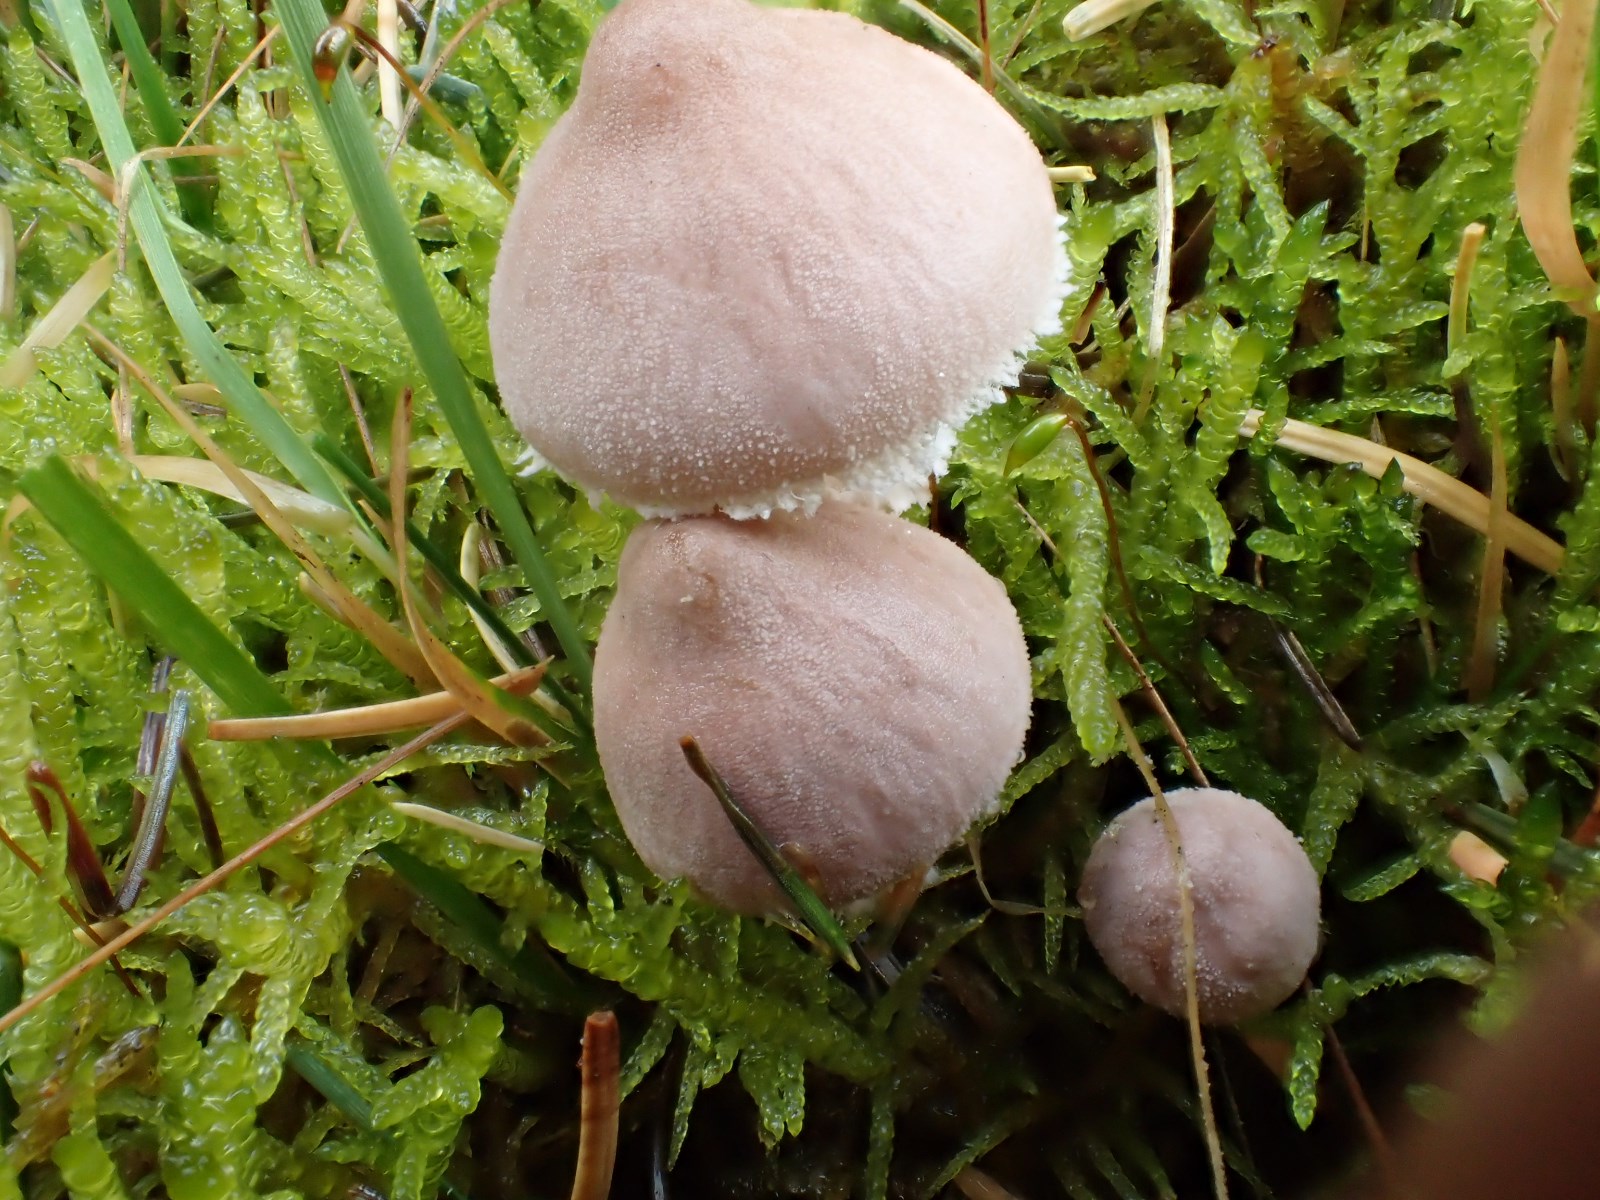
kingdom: Fungi
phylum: Basidiomycota
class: Agaricomycetes
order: Agaricales
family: Tricholomataceae
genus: Cystoderma
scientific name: Cystoderma carcharias
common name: rødgrå grynhat
